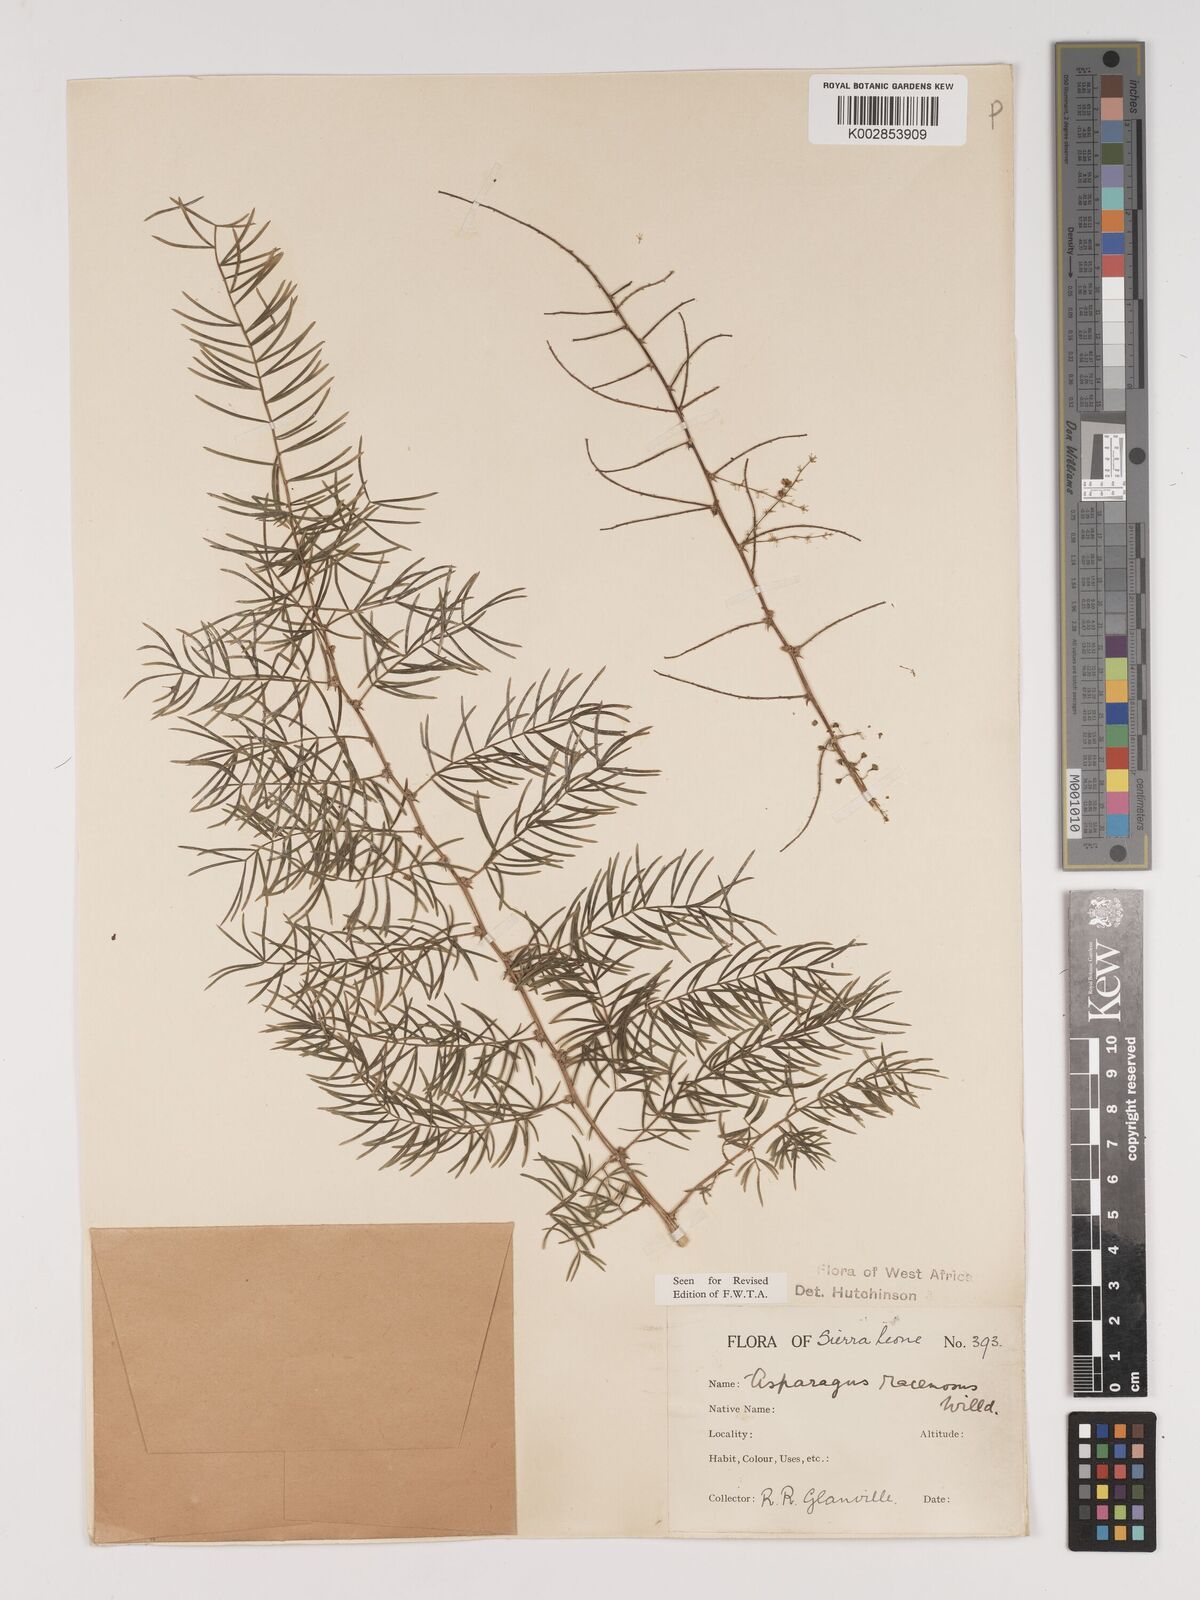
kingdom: Plantae
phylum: Tracheophyta
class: Liliopsida
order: Asparagales
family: Asparagaceae
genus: Asparagus
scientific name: Asparagus racemosus
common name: Asparagus-fern
